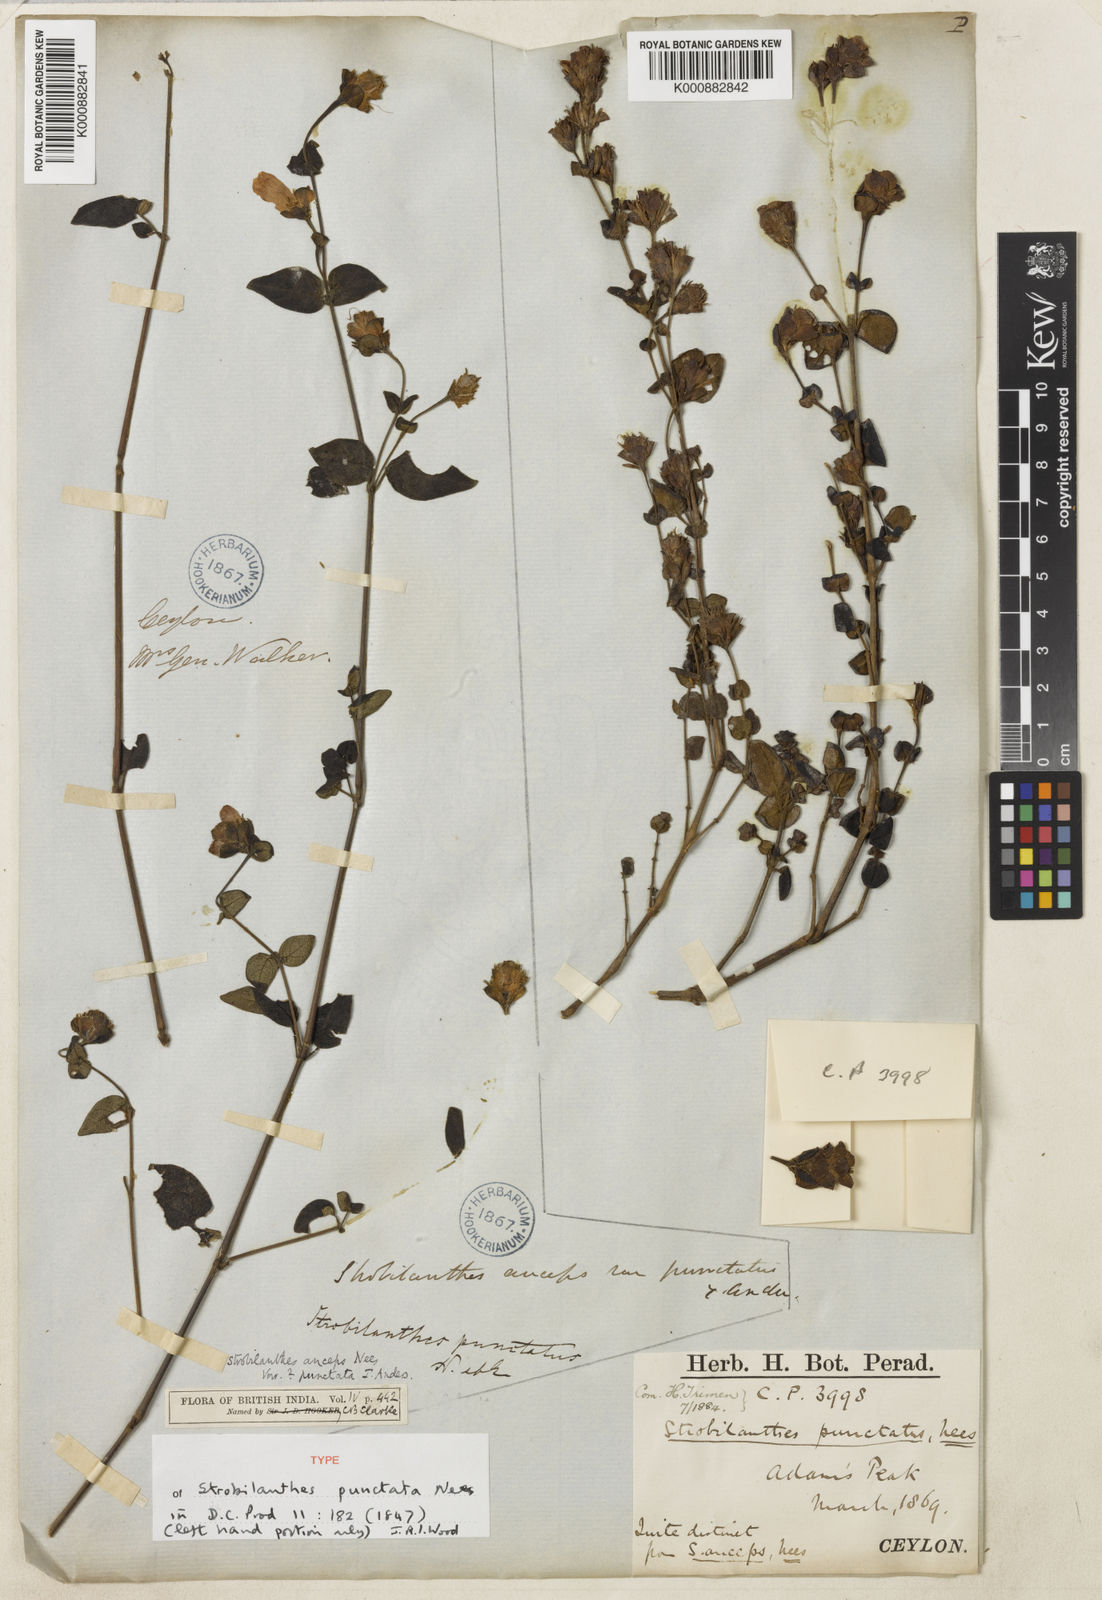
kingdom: Plantae
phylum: Tracheophyta
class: Magnoliopsida
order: Lamiales
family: Acanthaceae
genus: Strobilanthes
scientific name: Strobilanthes anceps
